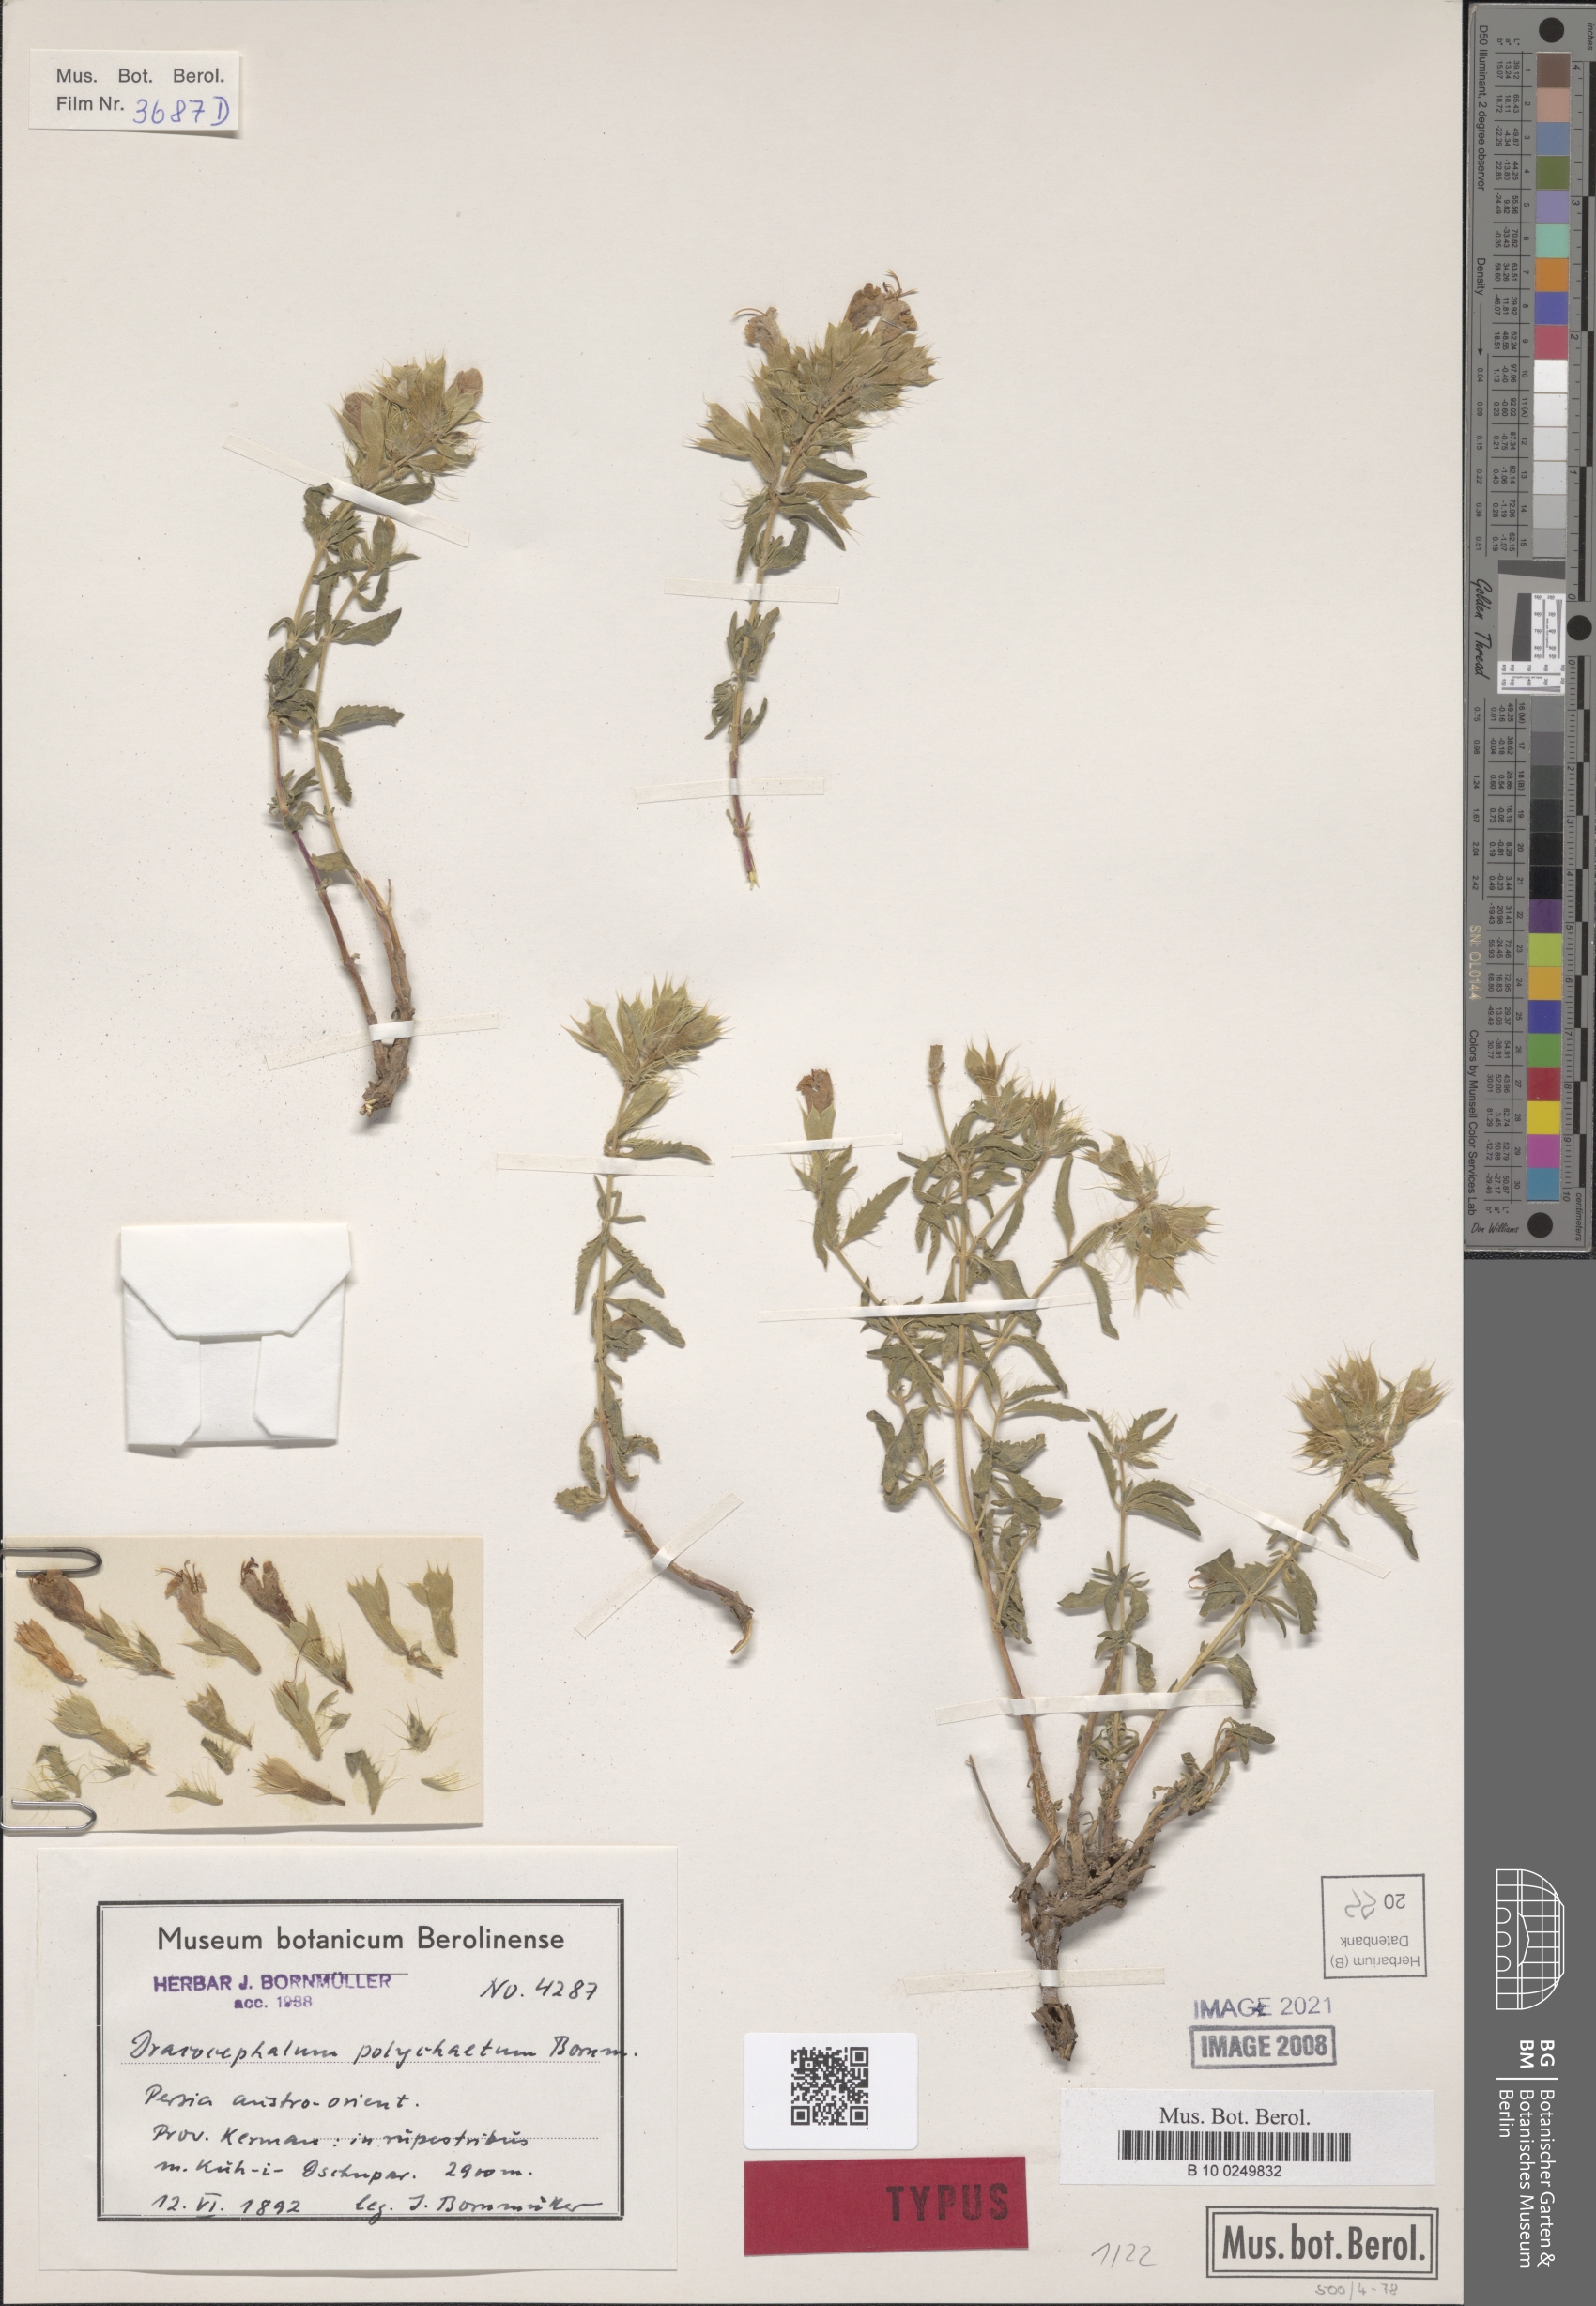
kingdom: Plantae
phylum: Tracheophyta
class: Magnoliopsida
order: Lamiales
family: Lamiaceae
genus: Dracocephalum
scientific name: Dracocephalum polychaetum
